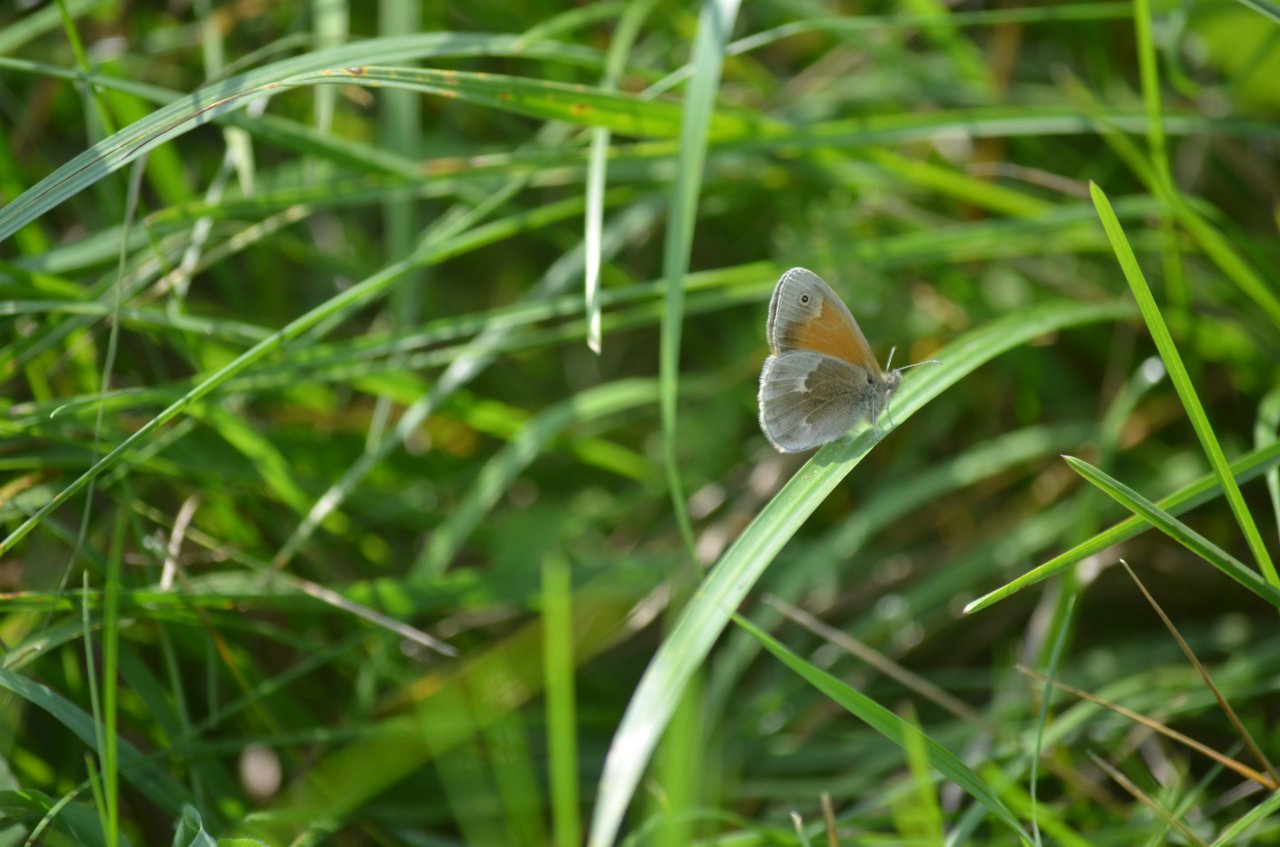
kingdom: Animalia
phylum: Arthropoda
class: Insecta
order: Lepidoptera
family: Nymphalidae
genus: Coenonympha
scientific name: Coenonympha tullia
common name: Large Heath
